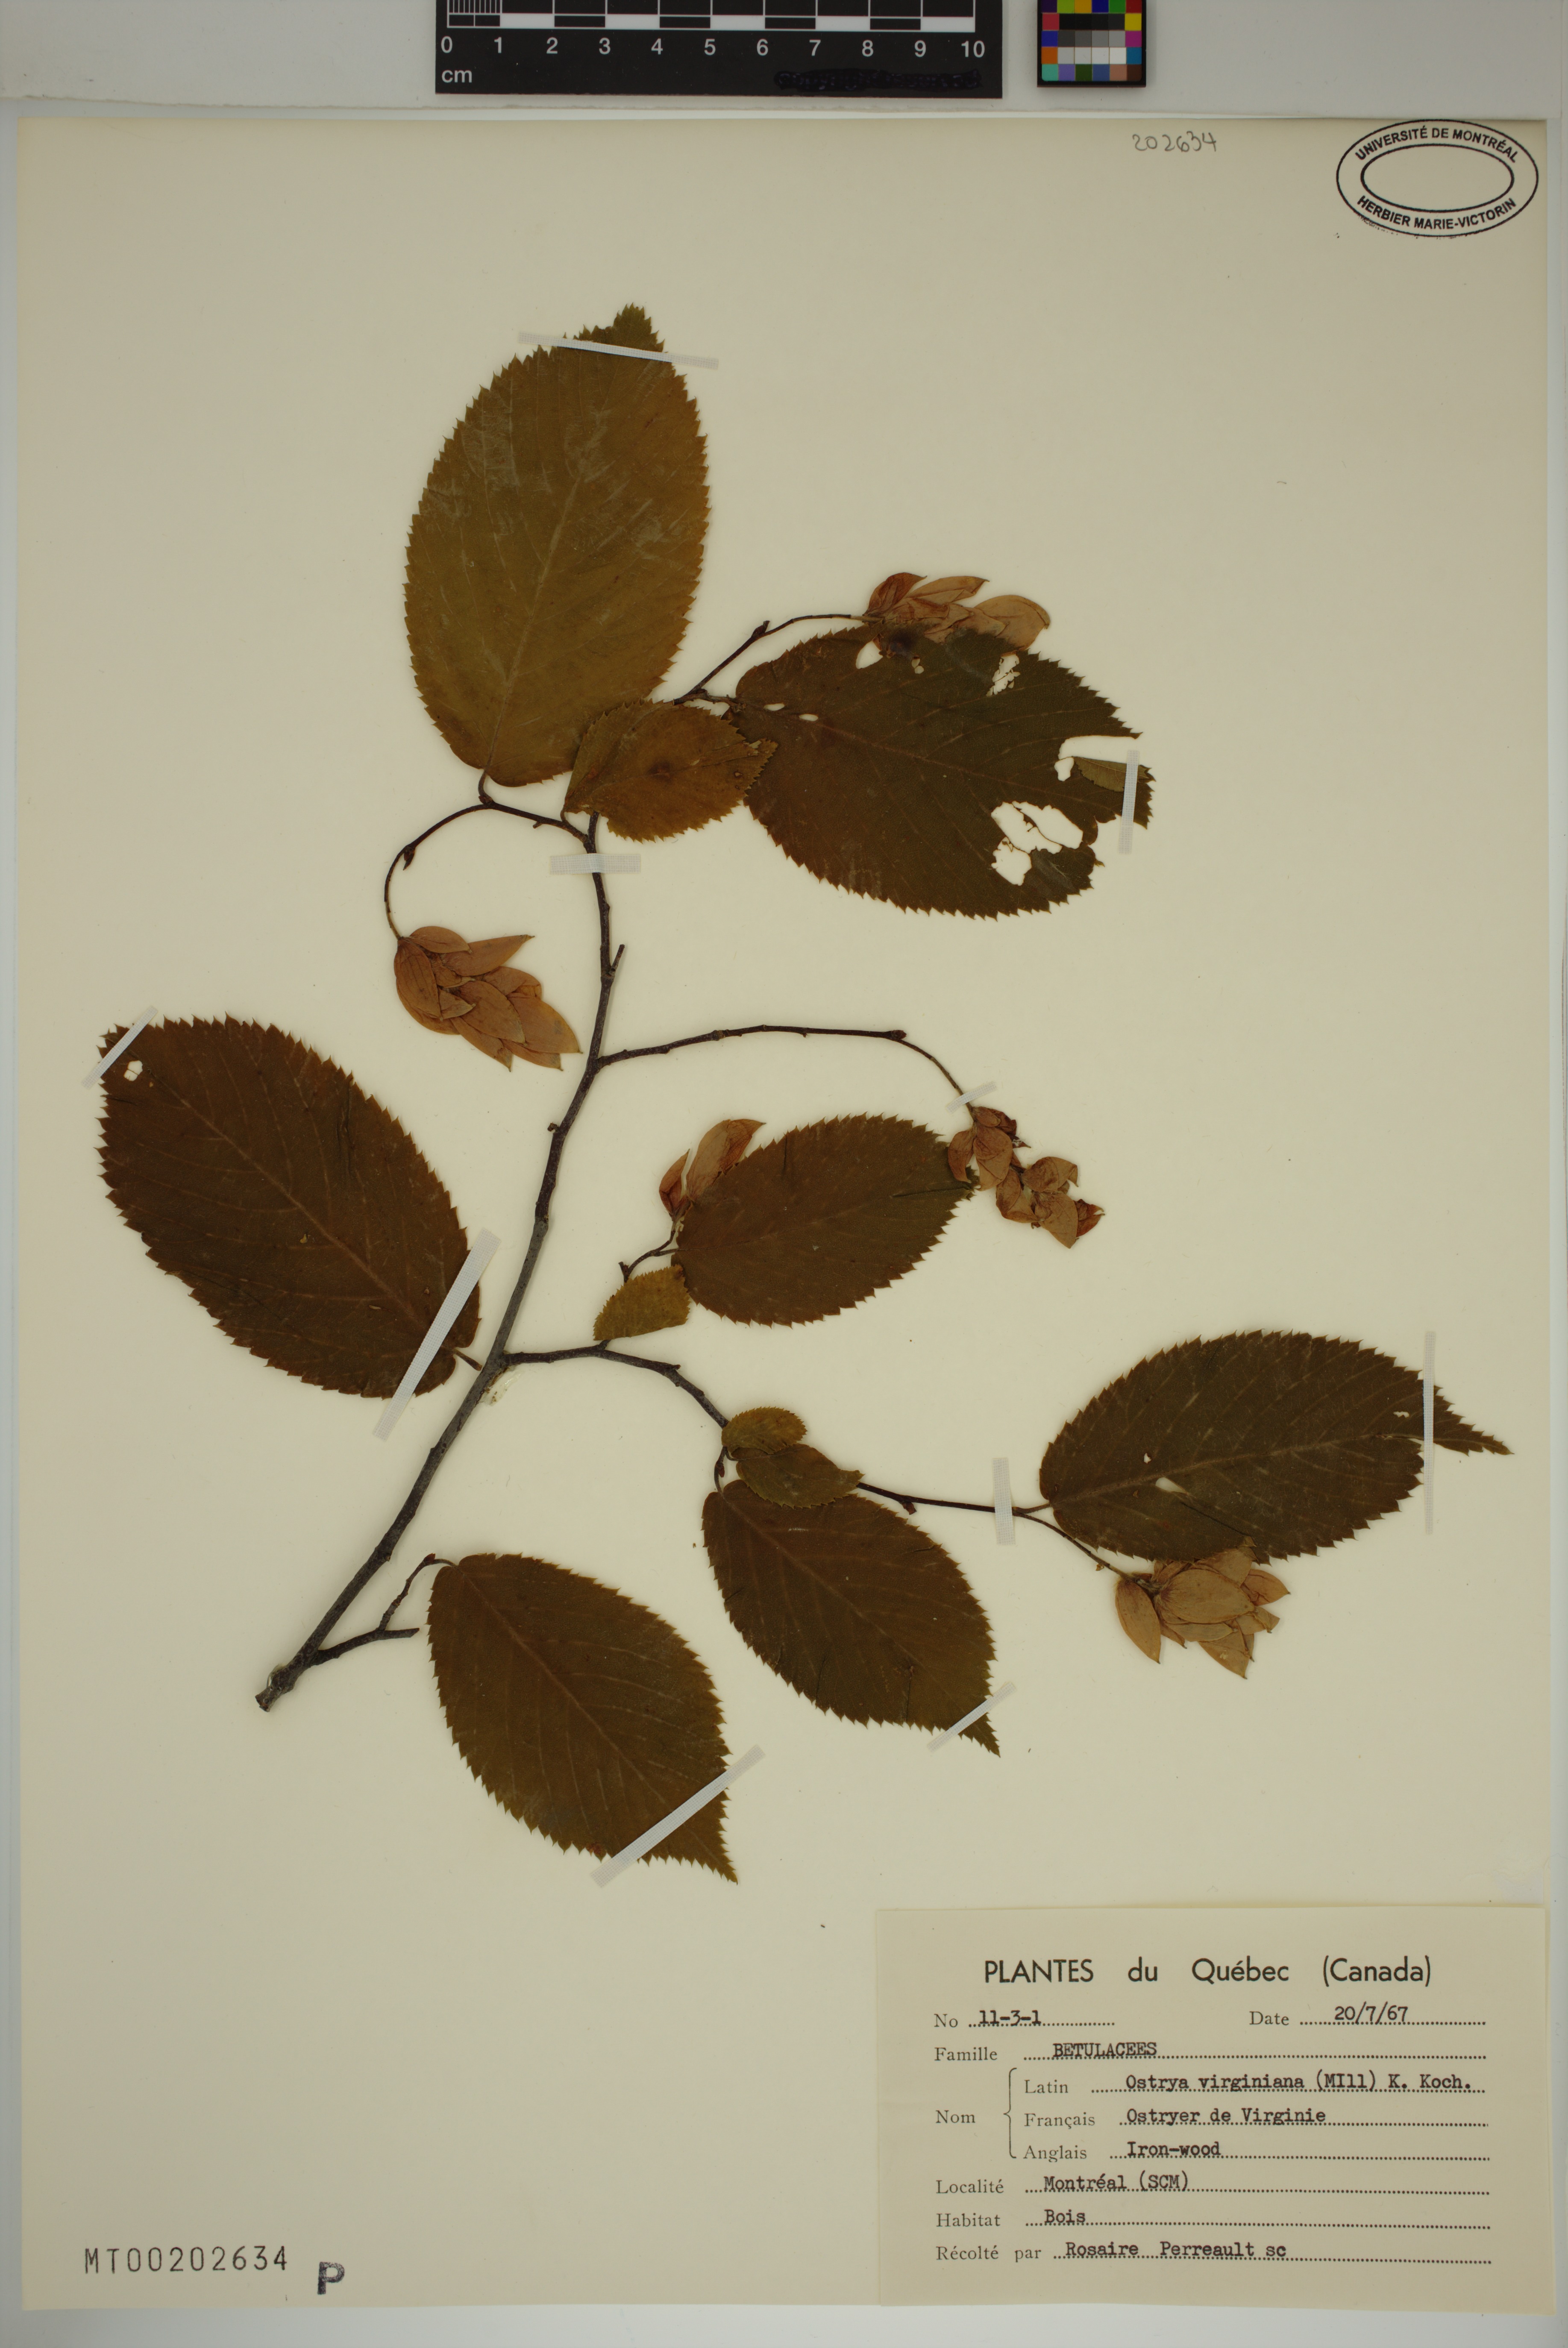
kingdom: Plantae
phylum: Tracheophyta
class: Magnoliopsida
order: Fagales
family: Betulaceae
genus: Ostrya
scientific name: Ostrya virginiana
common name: Ironwood
